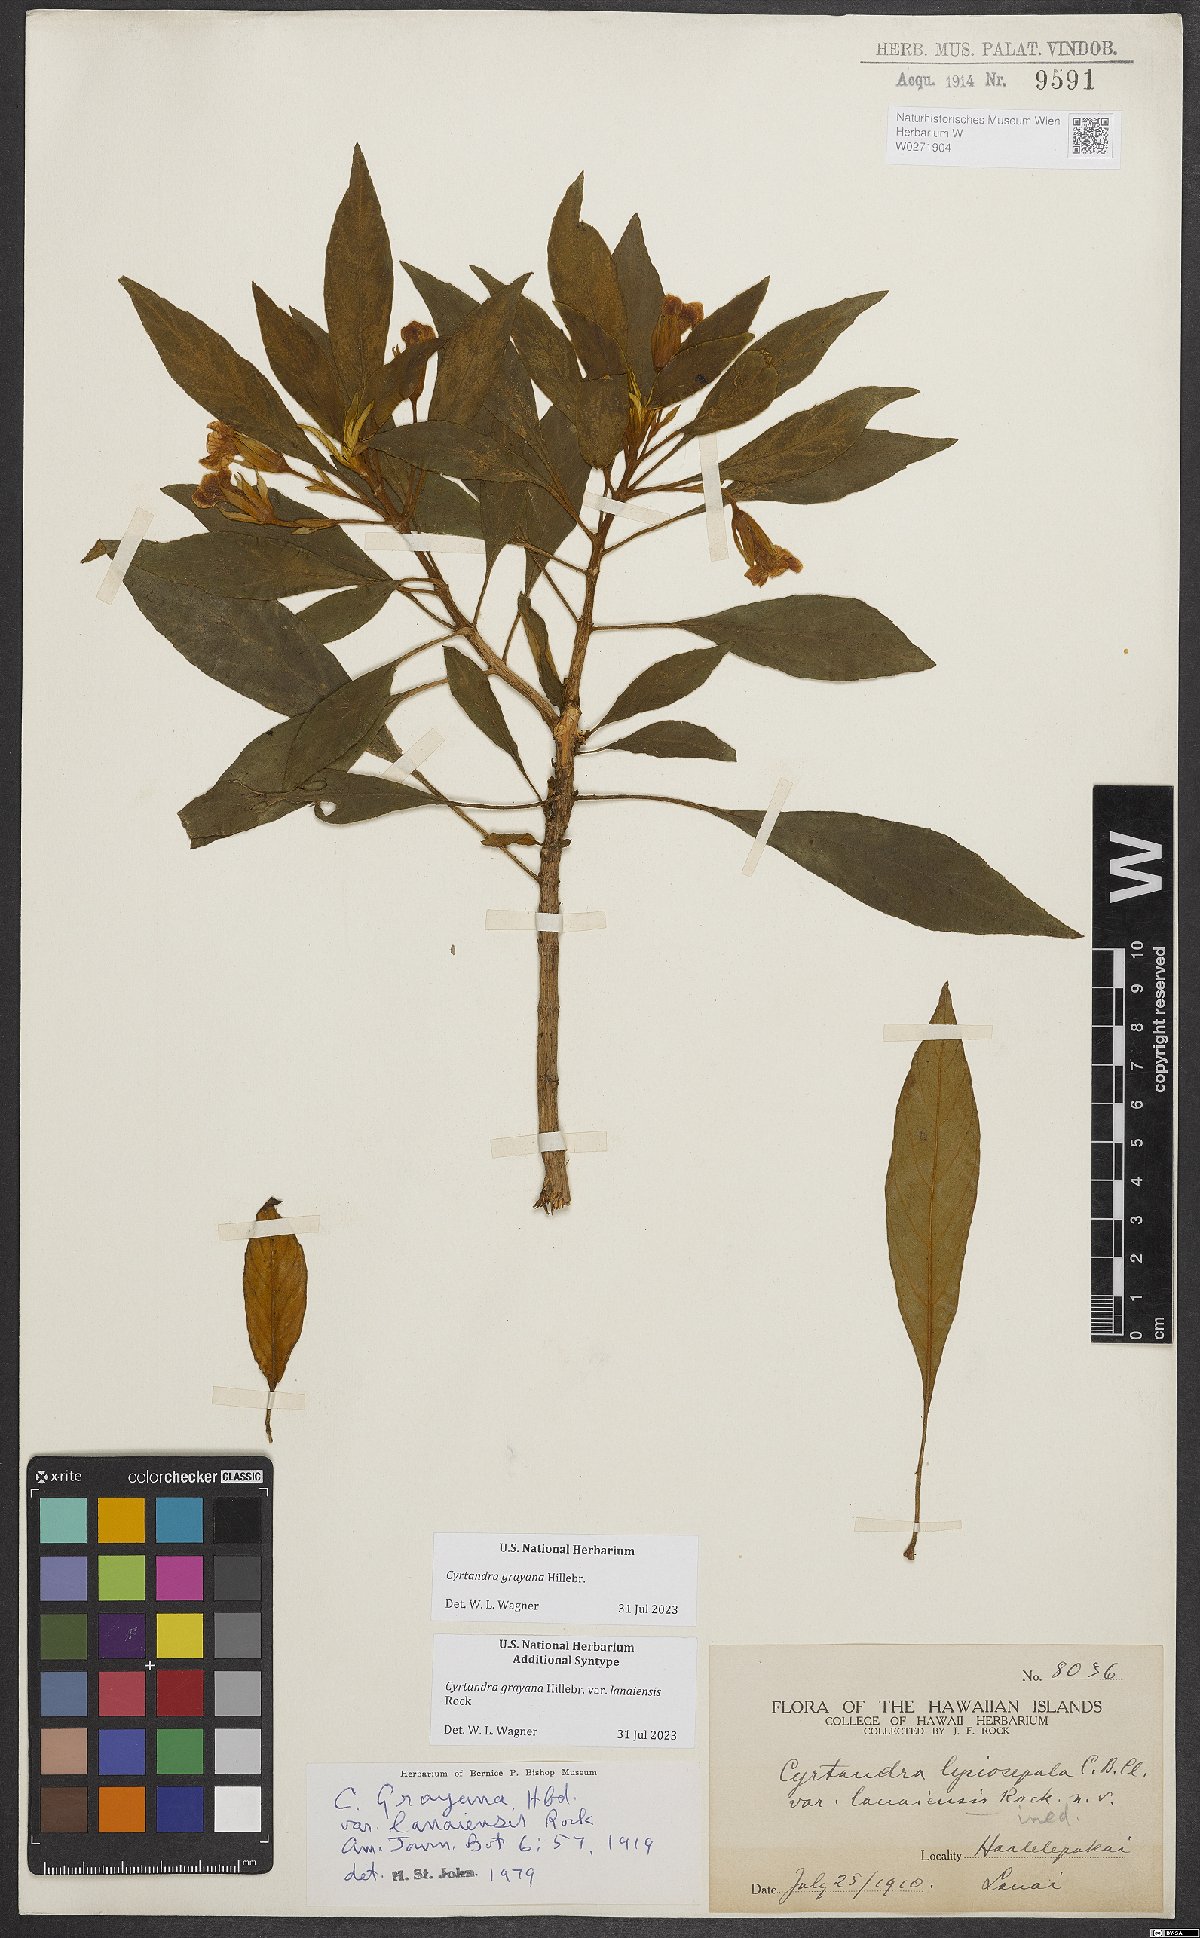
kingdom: Plantae
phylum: Tracheophyta
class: Magnoliopsida
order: Lamiales
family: Gesneriaceae
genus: Cyrtandra
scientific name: Cyrtandra grayana
